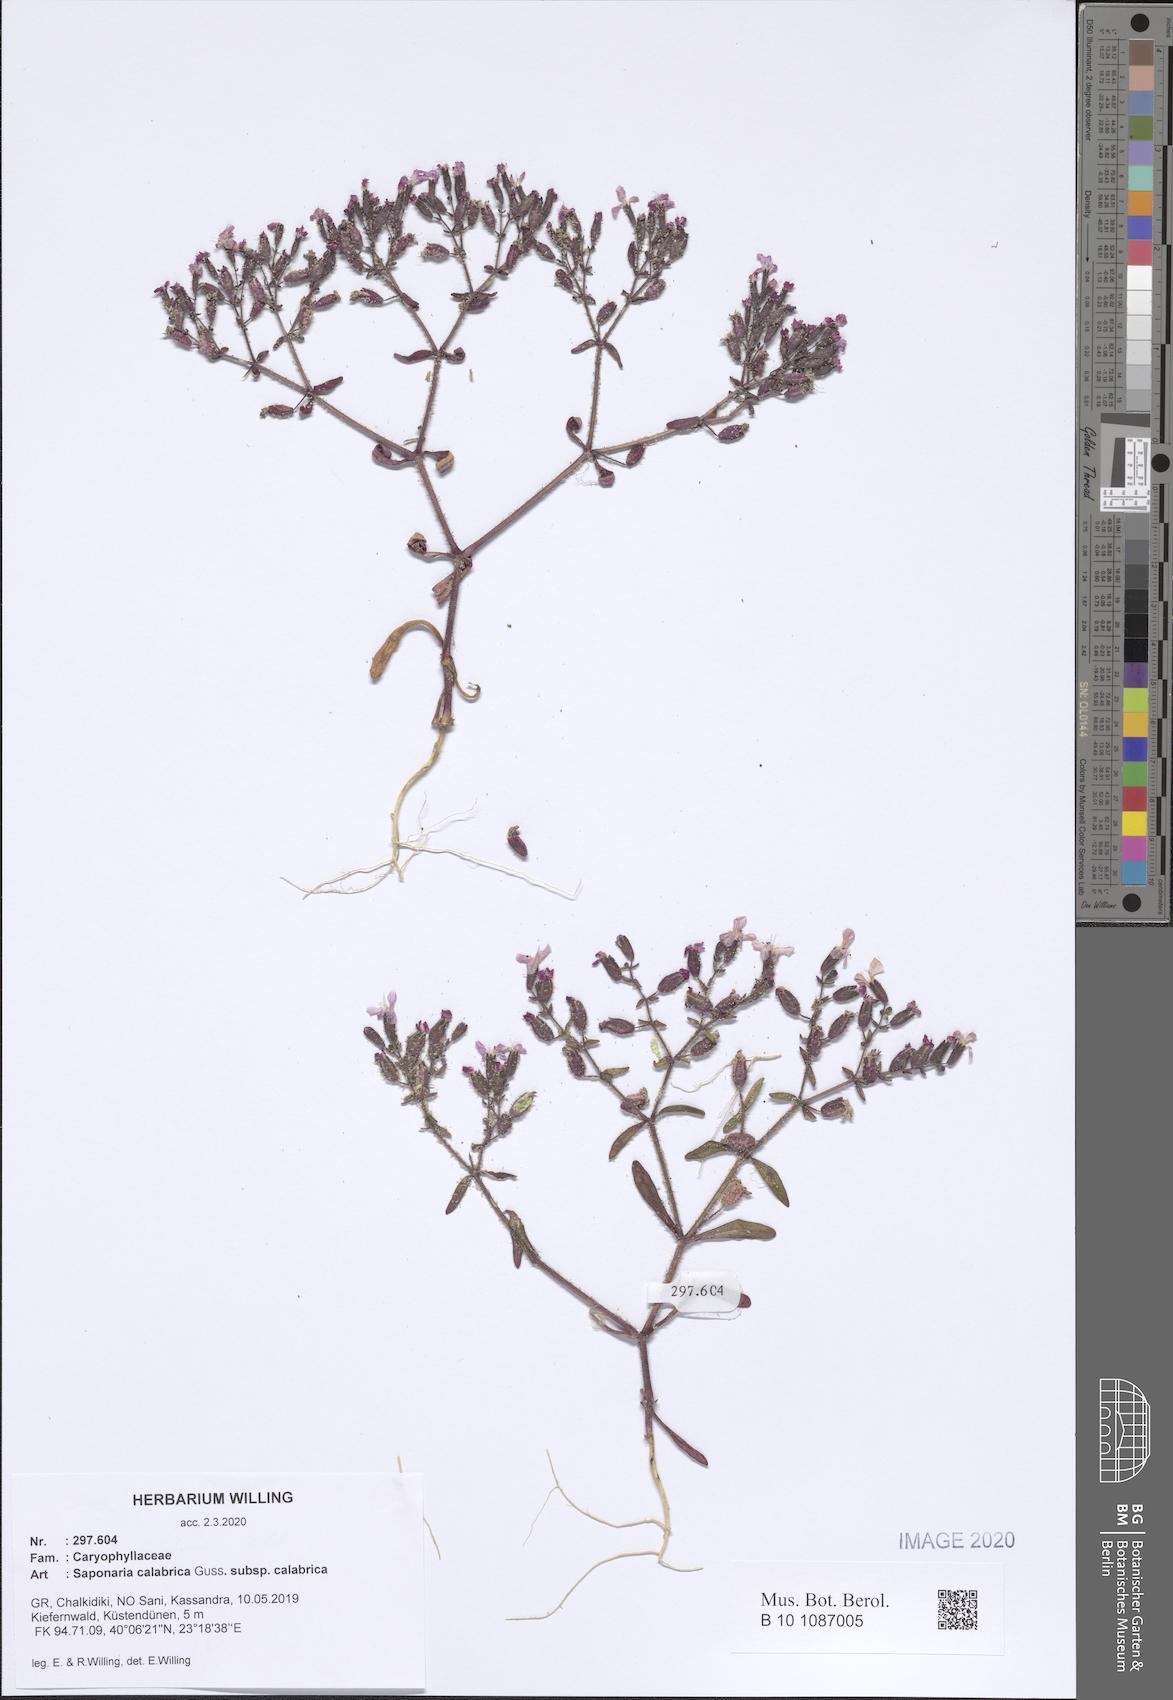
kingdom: Plantae
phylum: Tracheophyta
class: Magnoliopsida
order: Caryophyllales
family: Caryophyllaceae
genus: Saponaria
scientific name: Saponaria calabrica
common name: Adriatic soapwort
